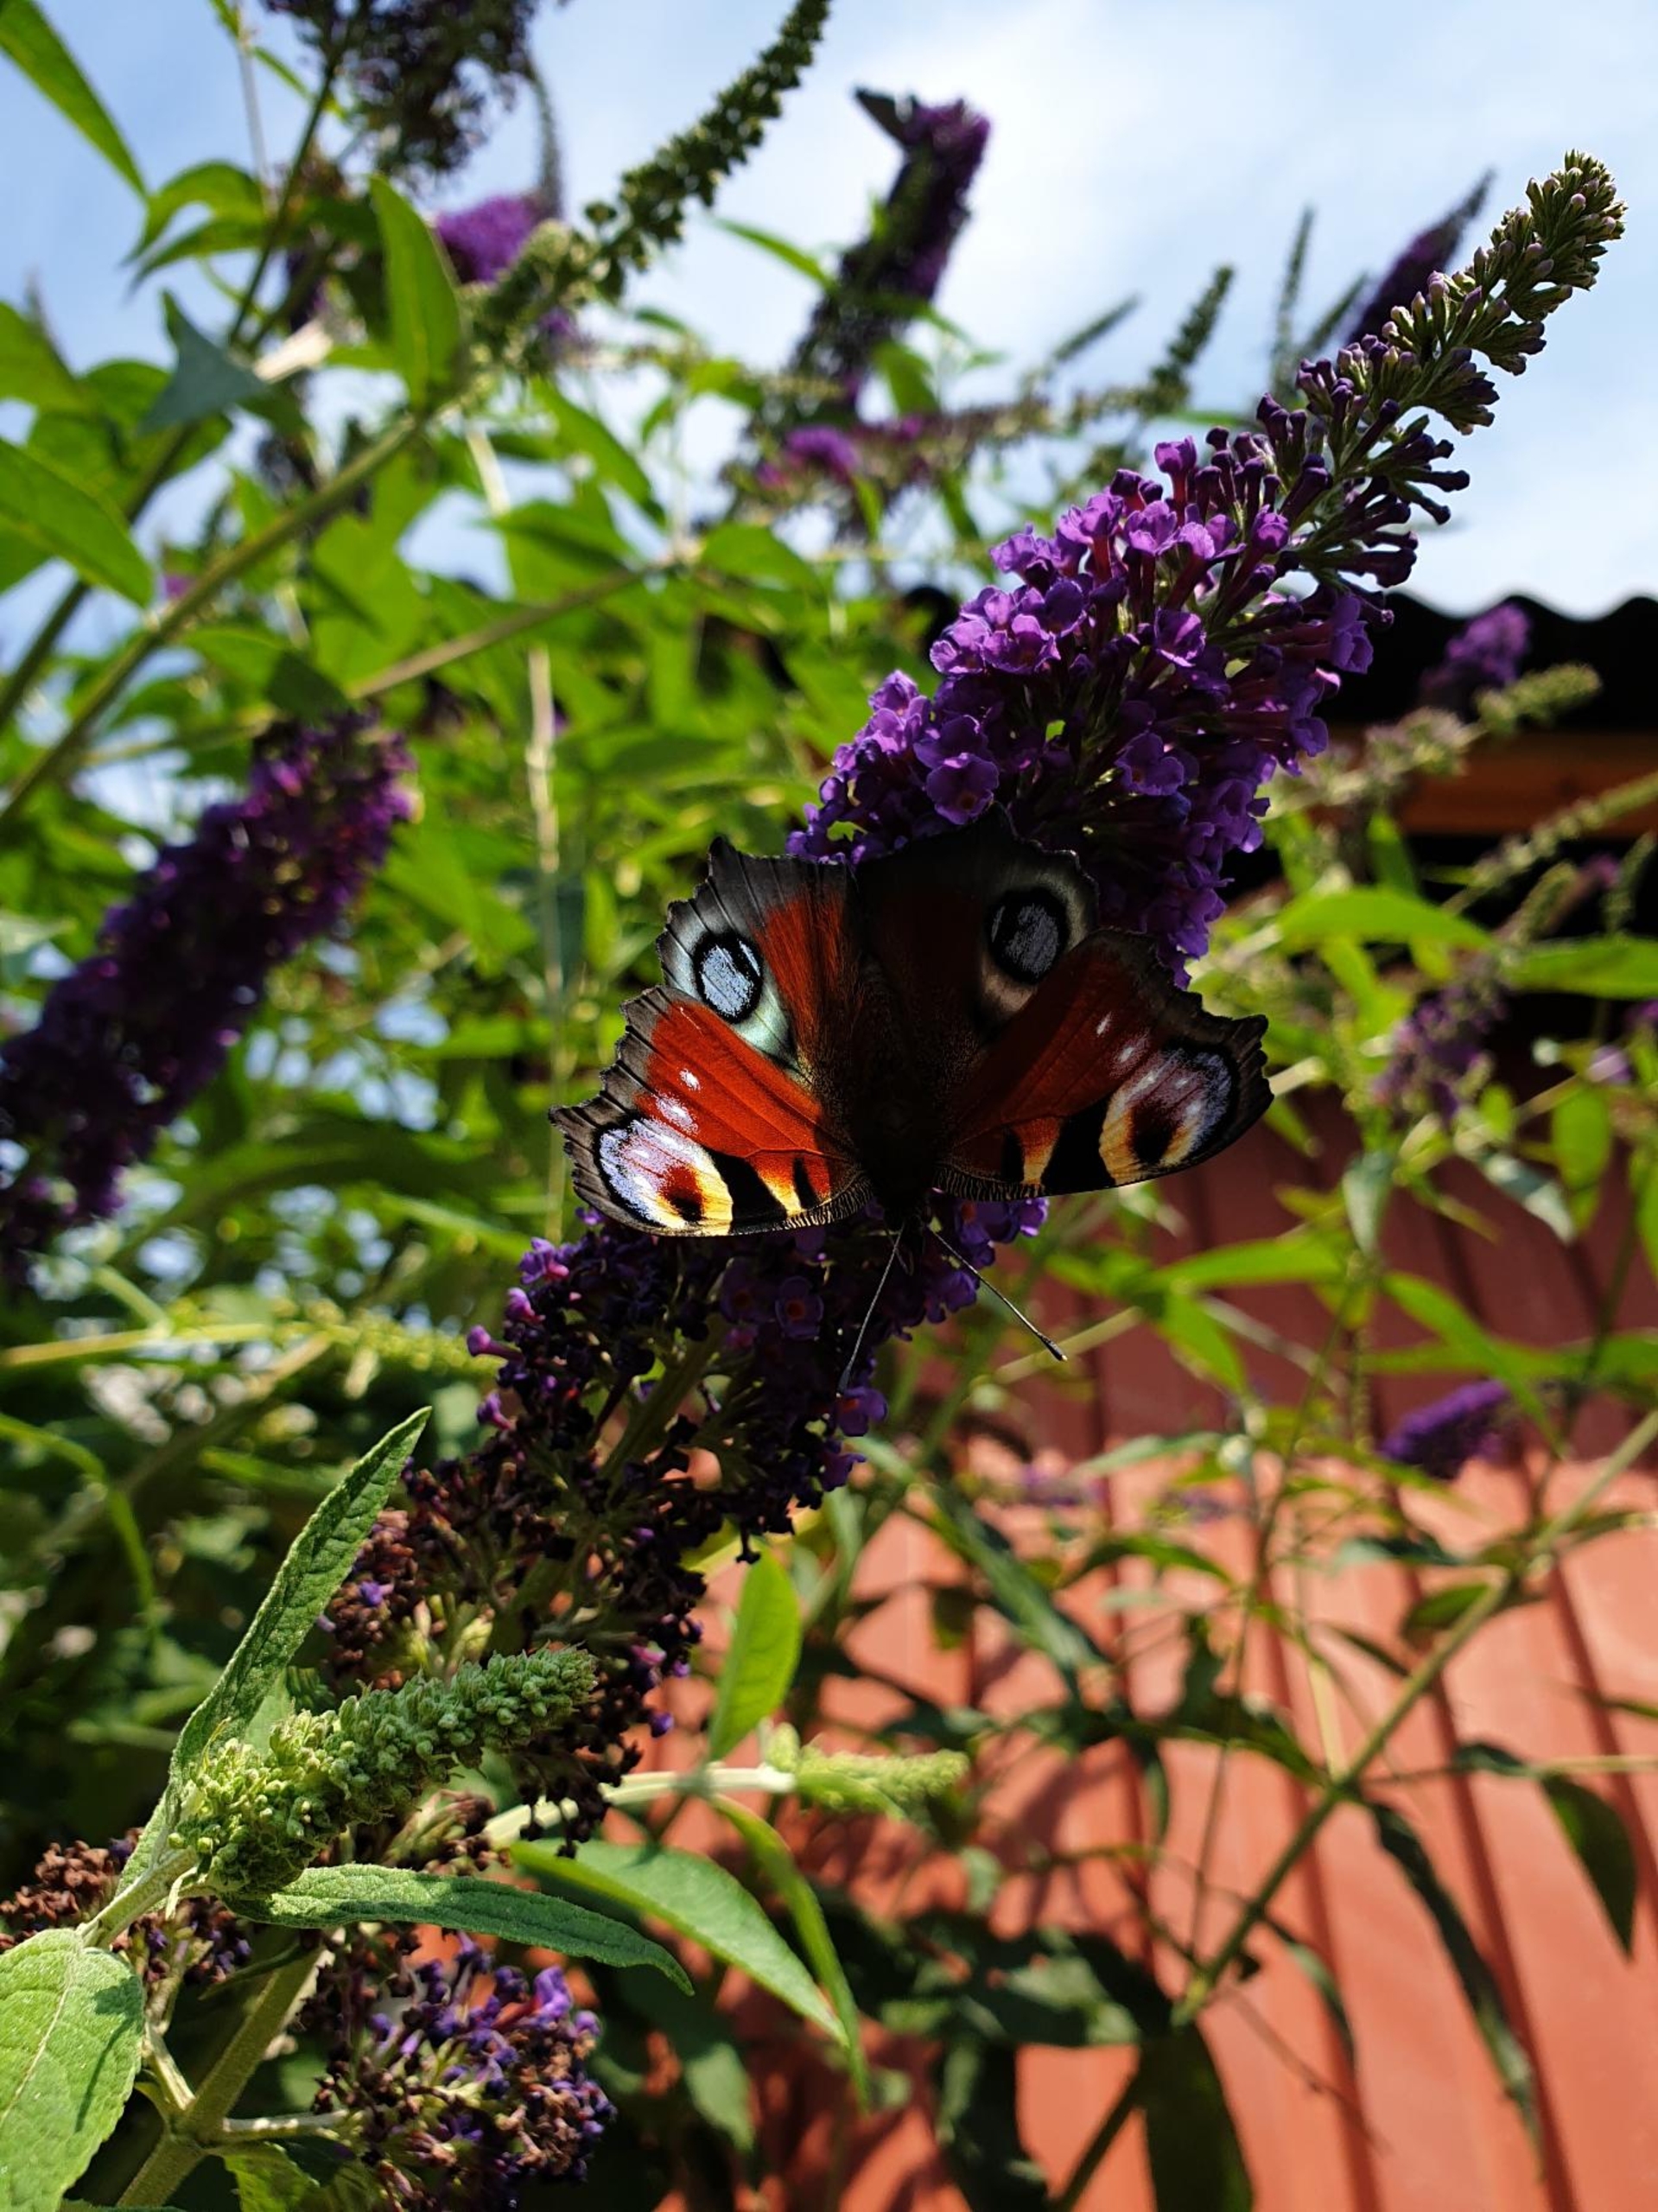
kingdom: Animalia
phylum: Arthropoda
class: Insecta
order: Lepidoptera
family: Nymphalidae
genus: Aglais
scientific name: Aglais io
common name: Dagpåfugleøje
